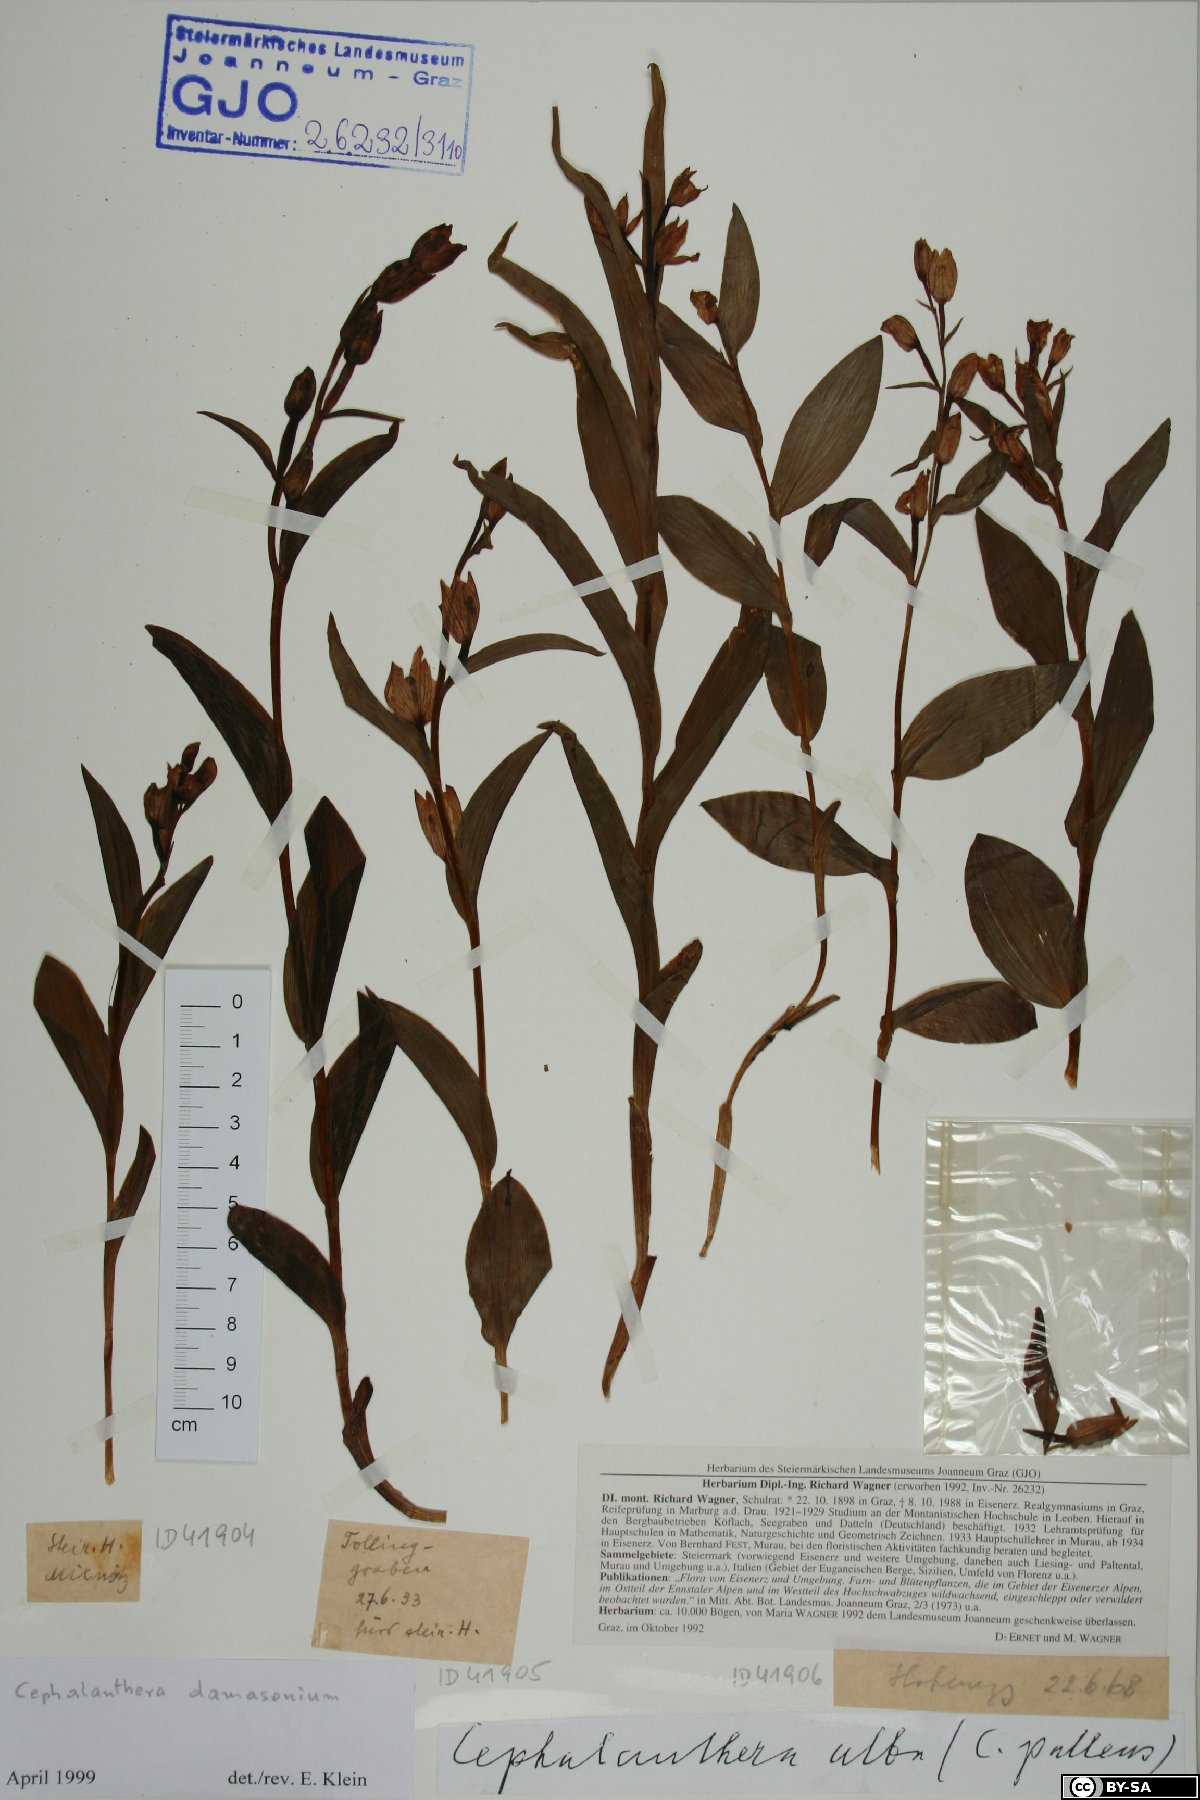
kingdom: Plantae
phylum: Tracheophyta
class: Liliopsida
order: Asparagales
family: Orchidaceae
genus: Cephalanthera
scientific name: Cephalanthera damasonium
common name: White helleborine
